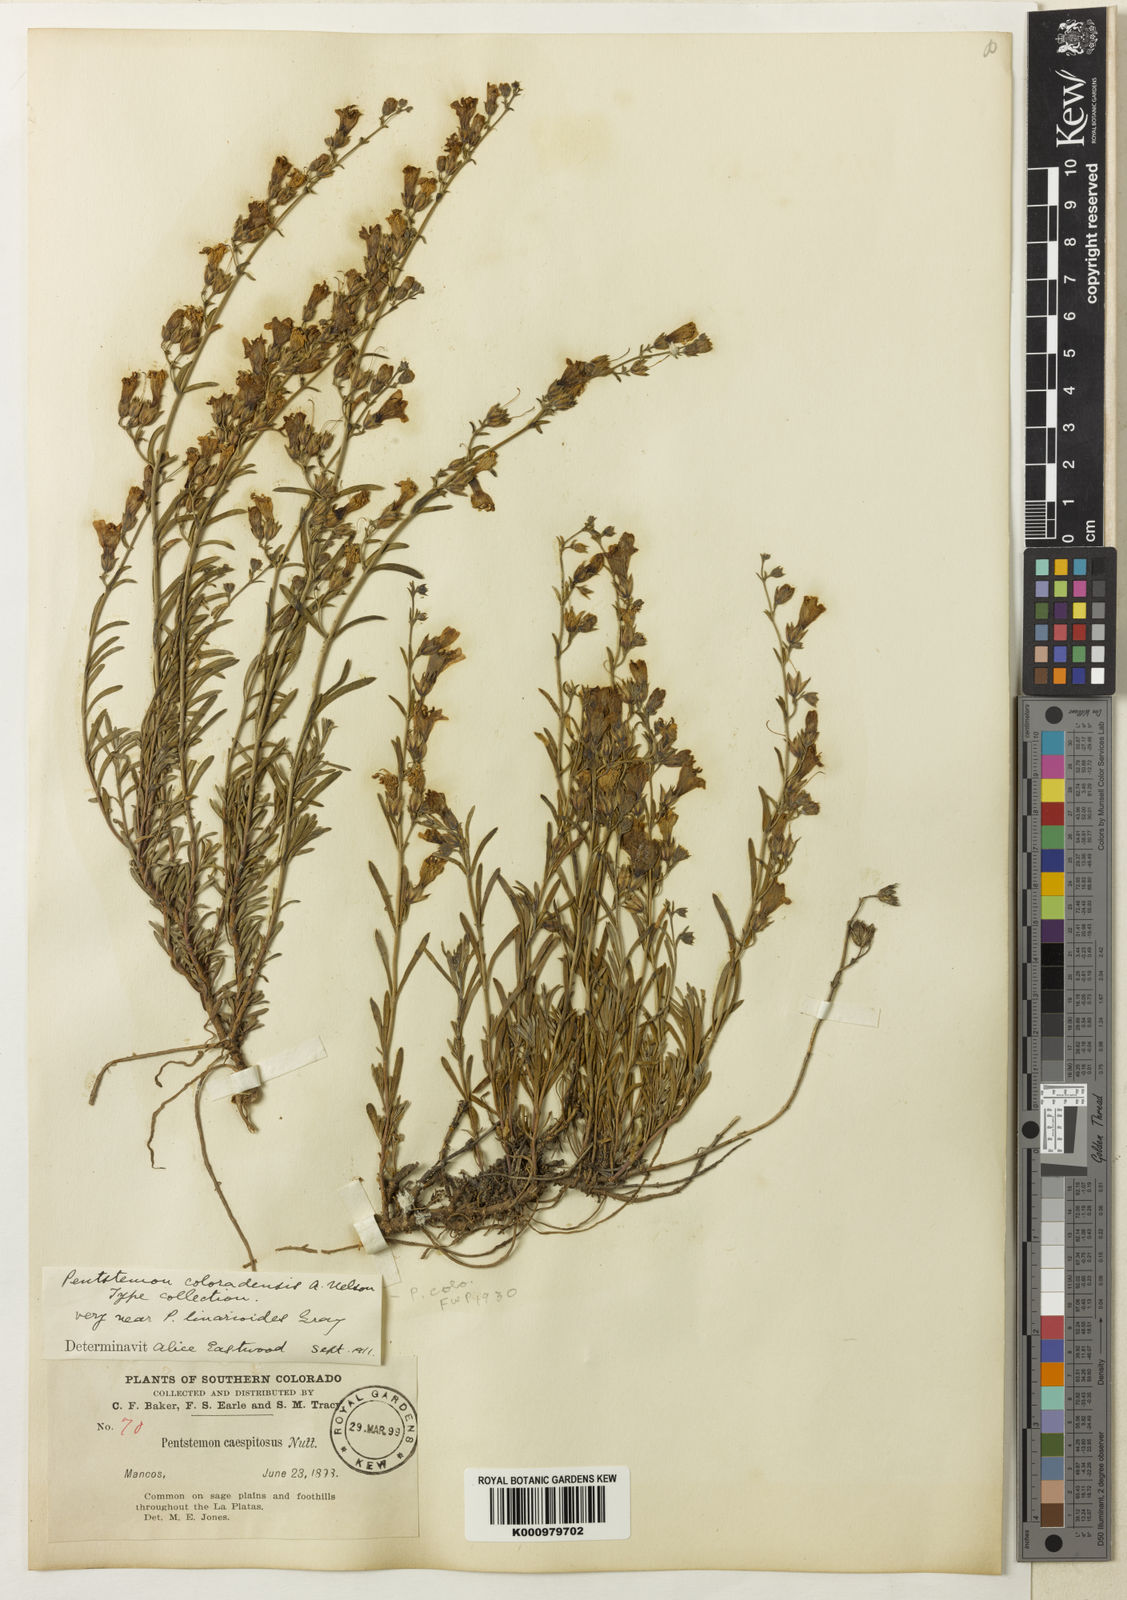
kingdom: Plantae
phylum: Tracheophyta
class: Magnoliopsida
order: Lamiales
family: Plantaginaceae
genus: Penstemon
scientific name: Penstemon linarioides
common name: Siler's penstemon
